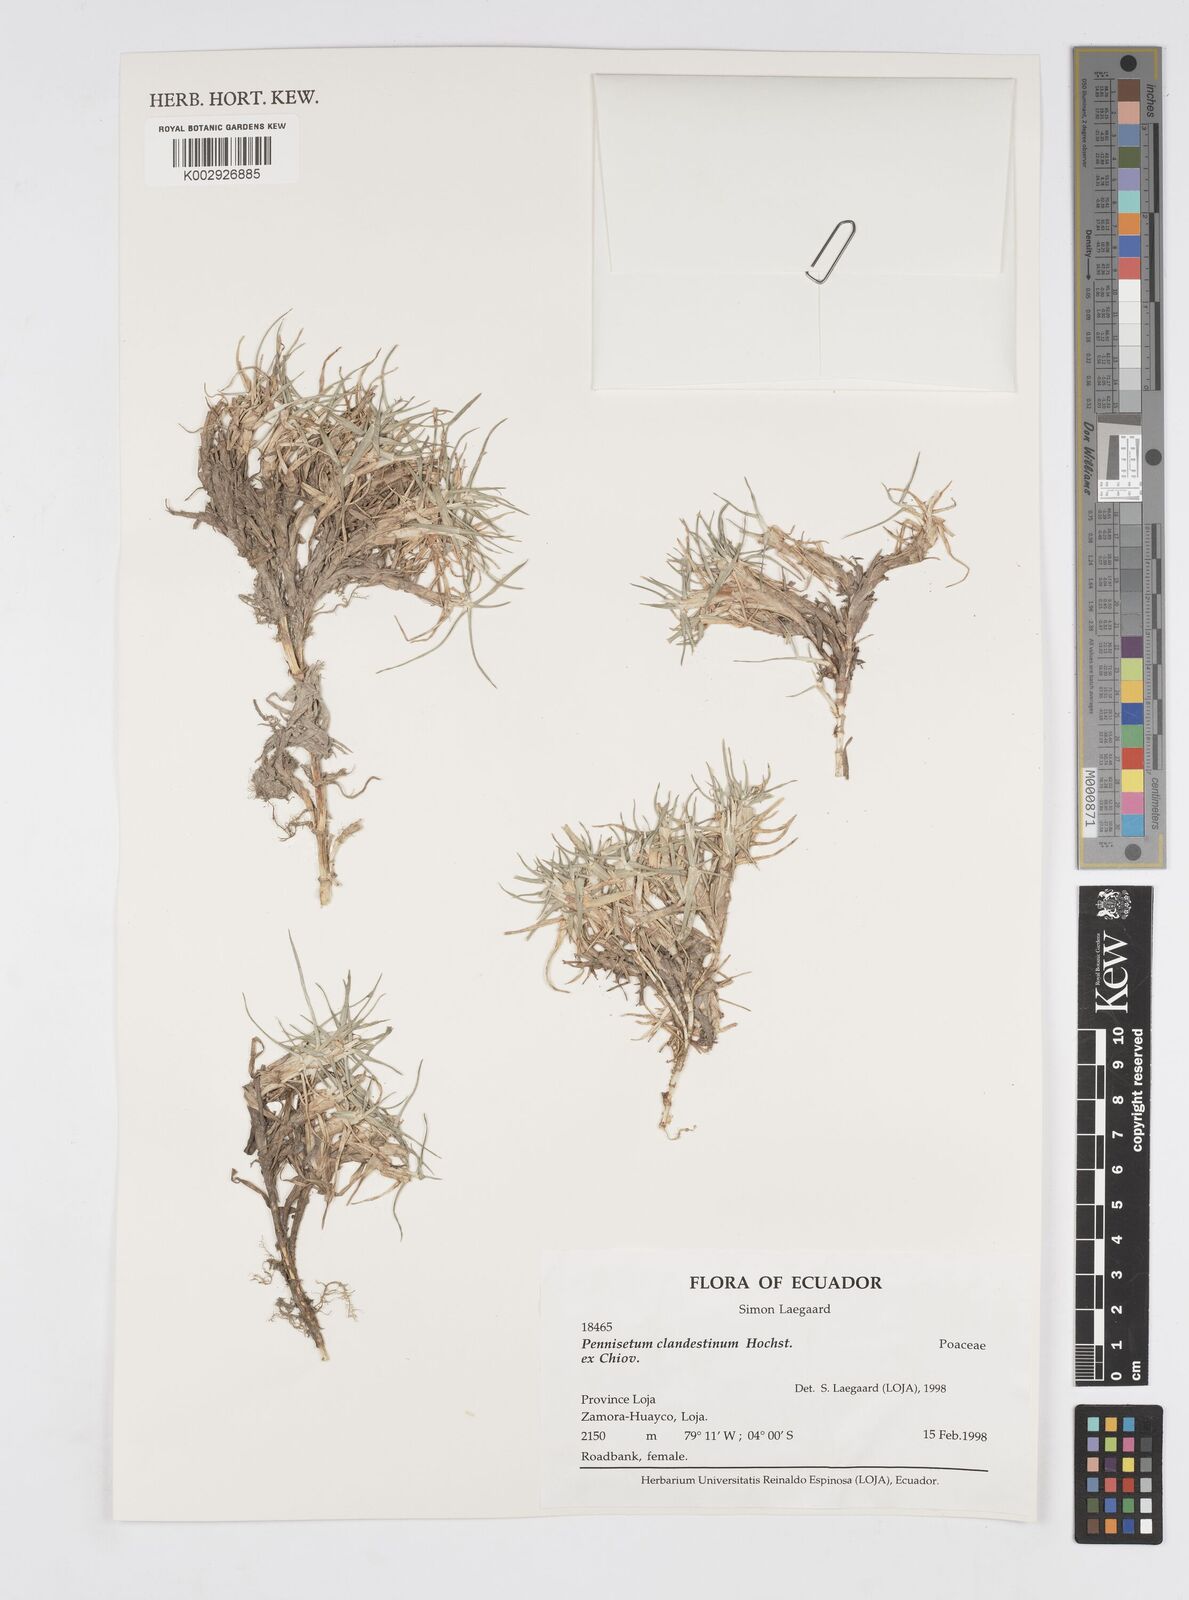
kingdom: Plantae
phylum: Tracheophyta
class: Liliopsida
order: Poales
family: Poaceae
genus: Cenchrus
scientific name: Cenchrus clandestinus
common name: Kikuyugrass
